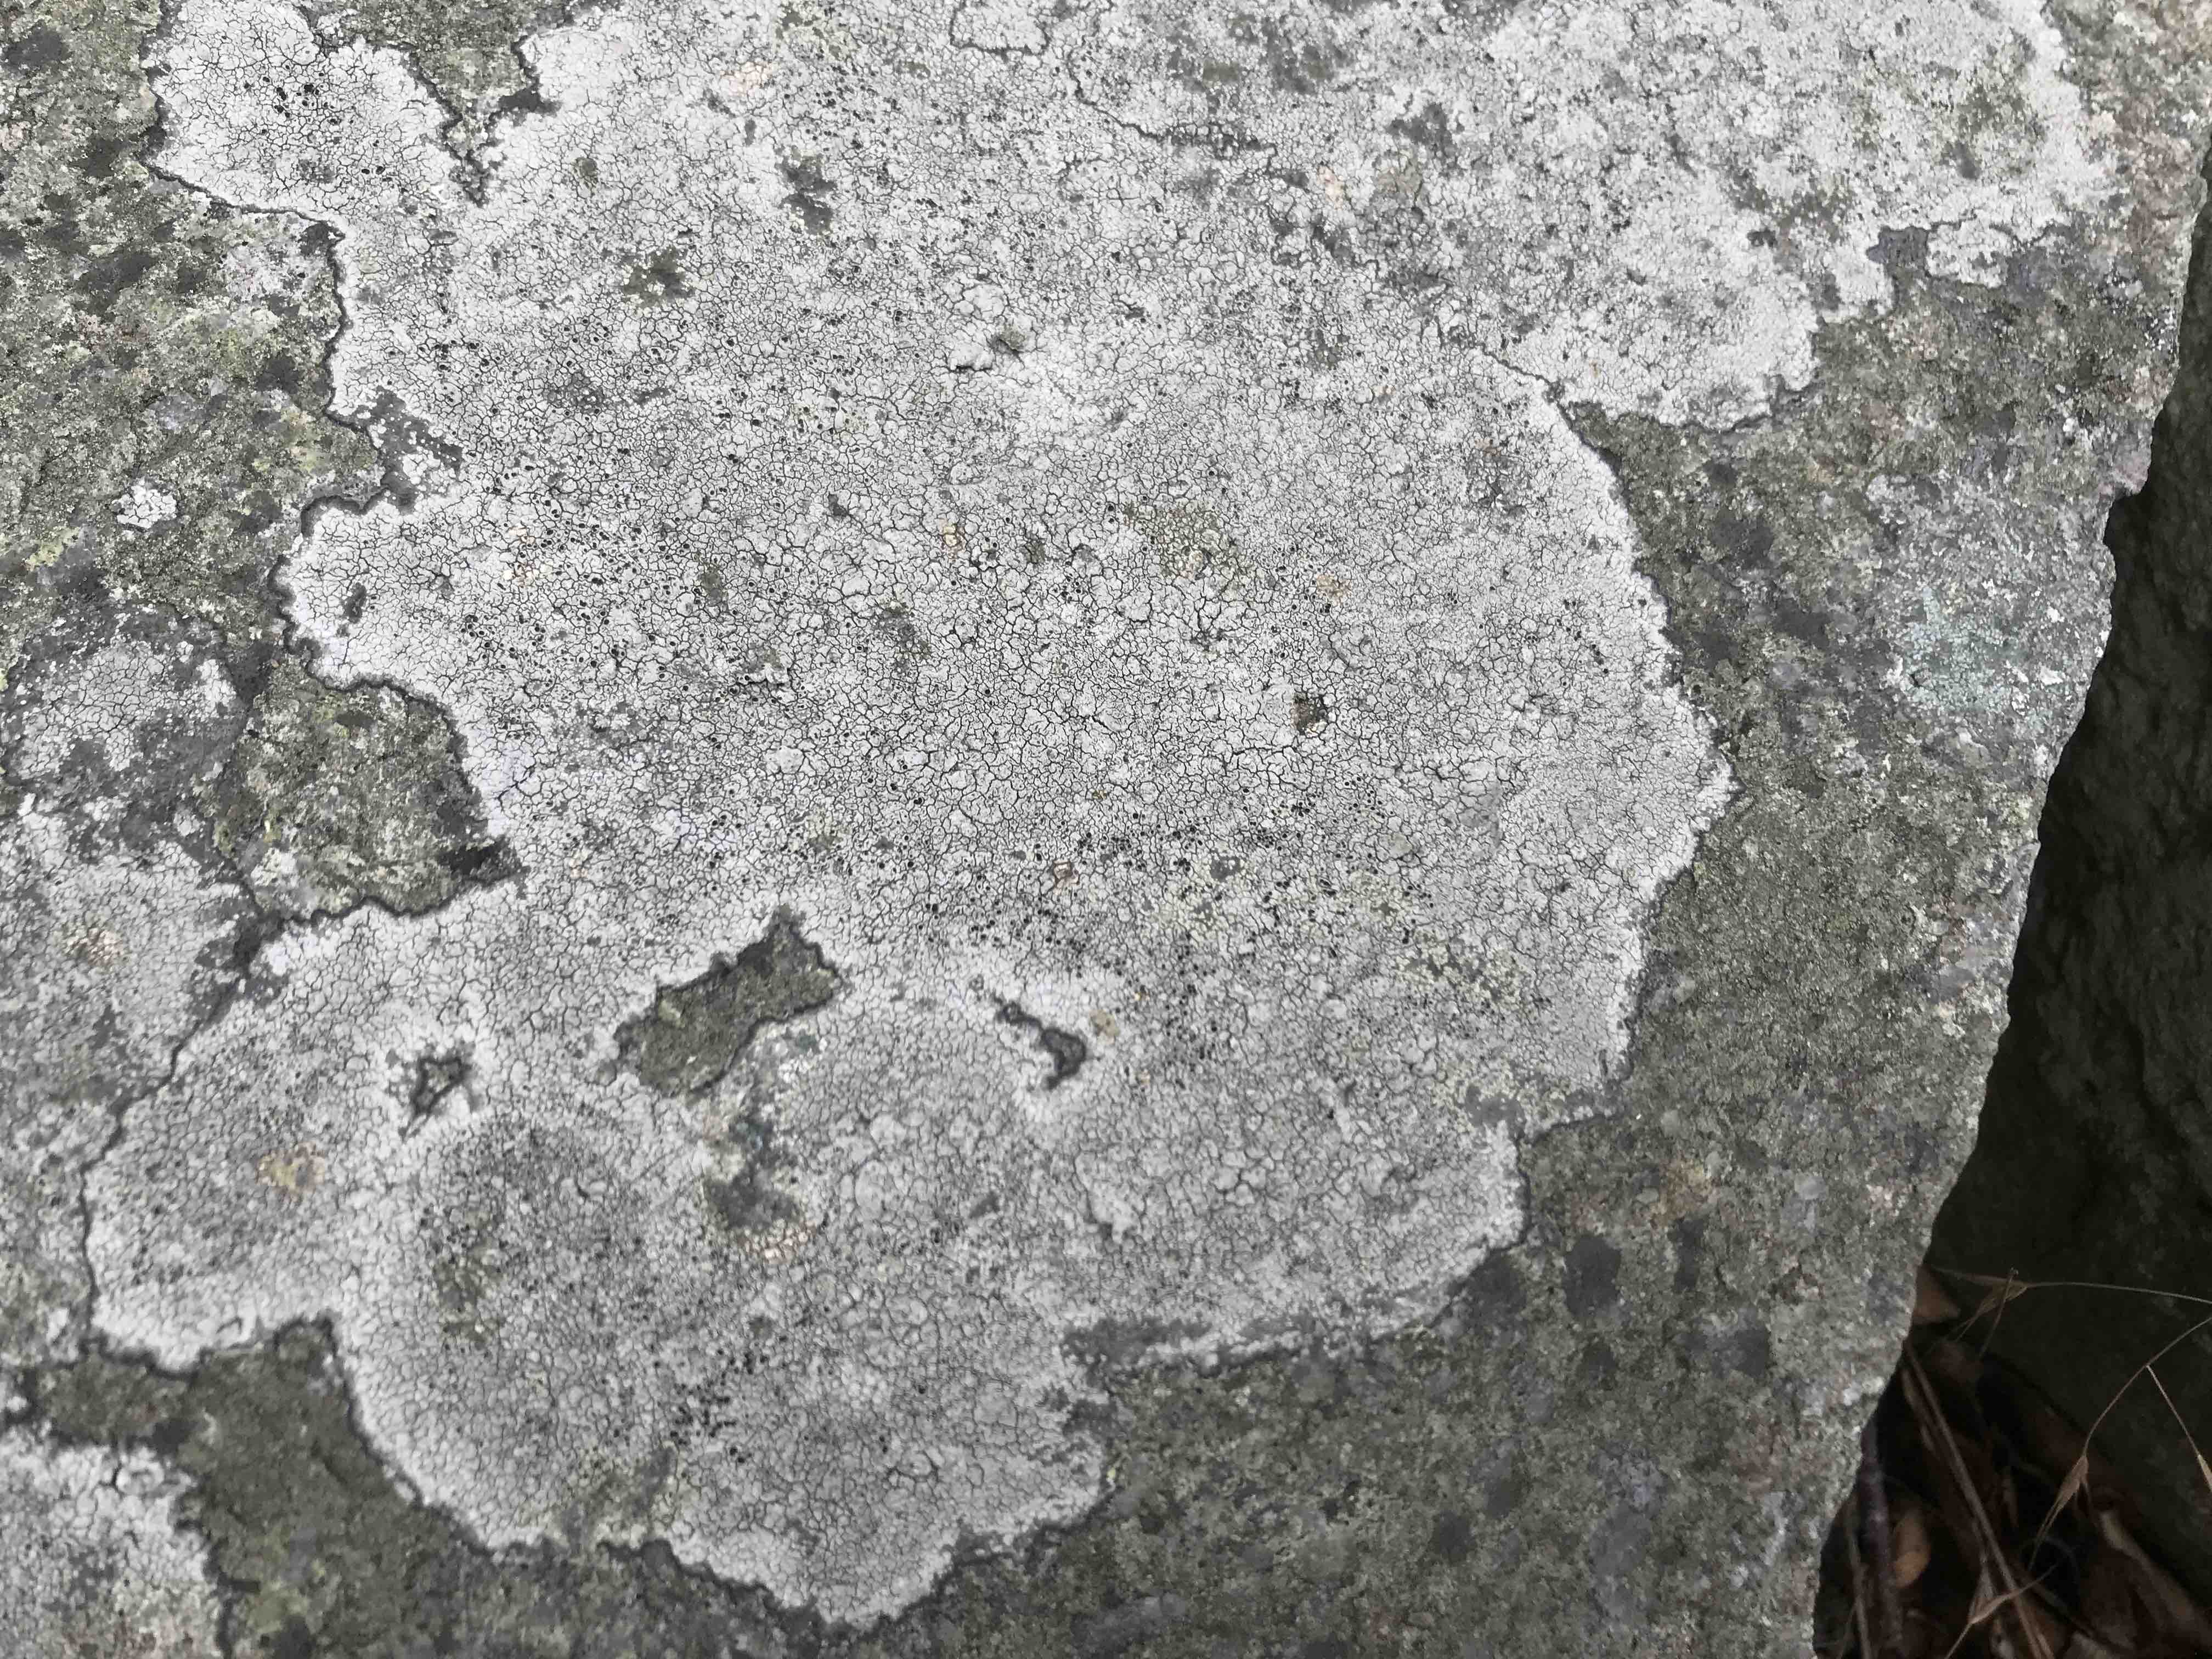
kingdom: Fungi
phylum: Ascomycota
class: Lecanoromycetes
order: Pertusariales
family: Megasporaceae
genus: Aspicilia
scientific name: Aspicilia
